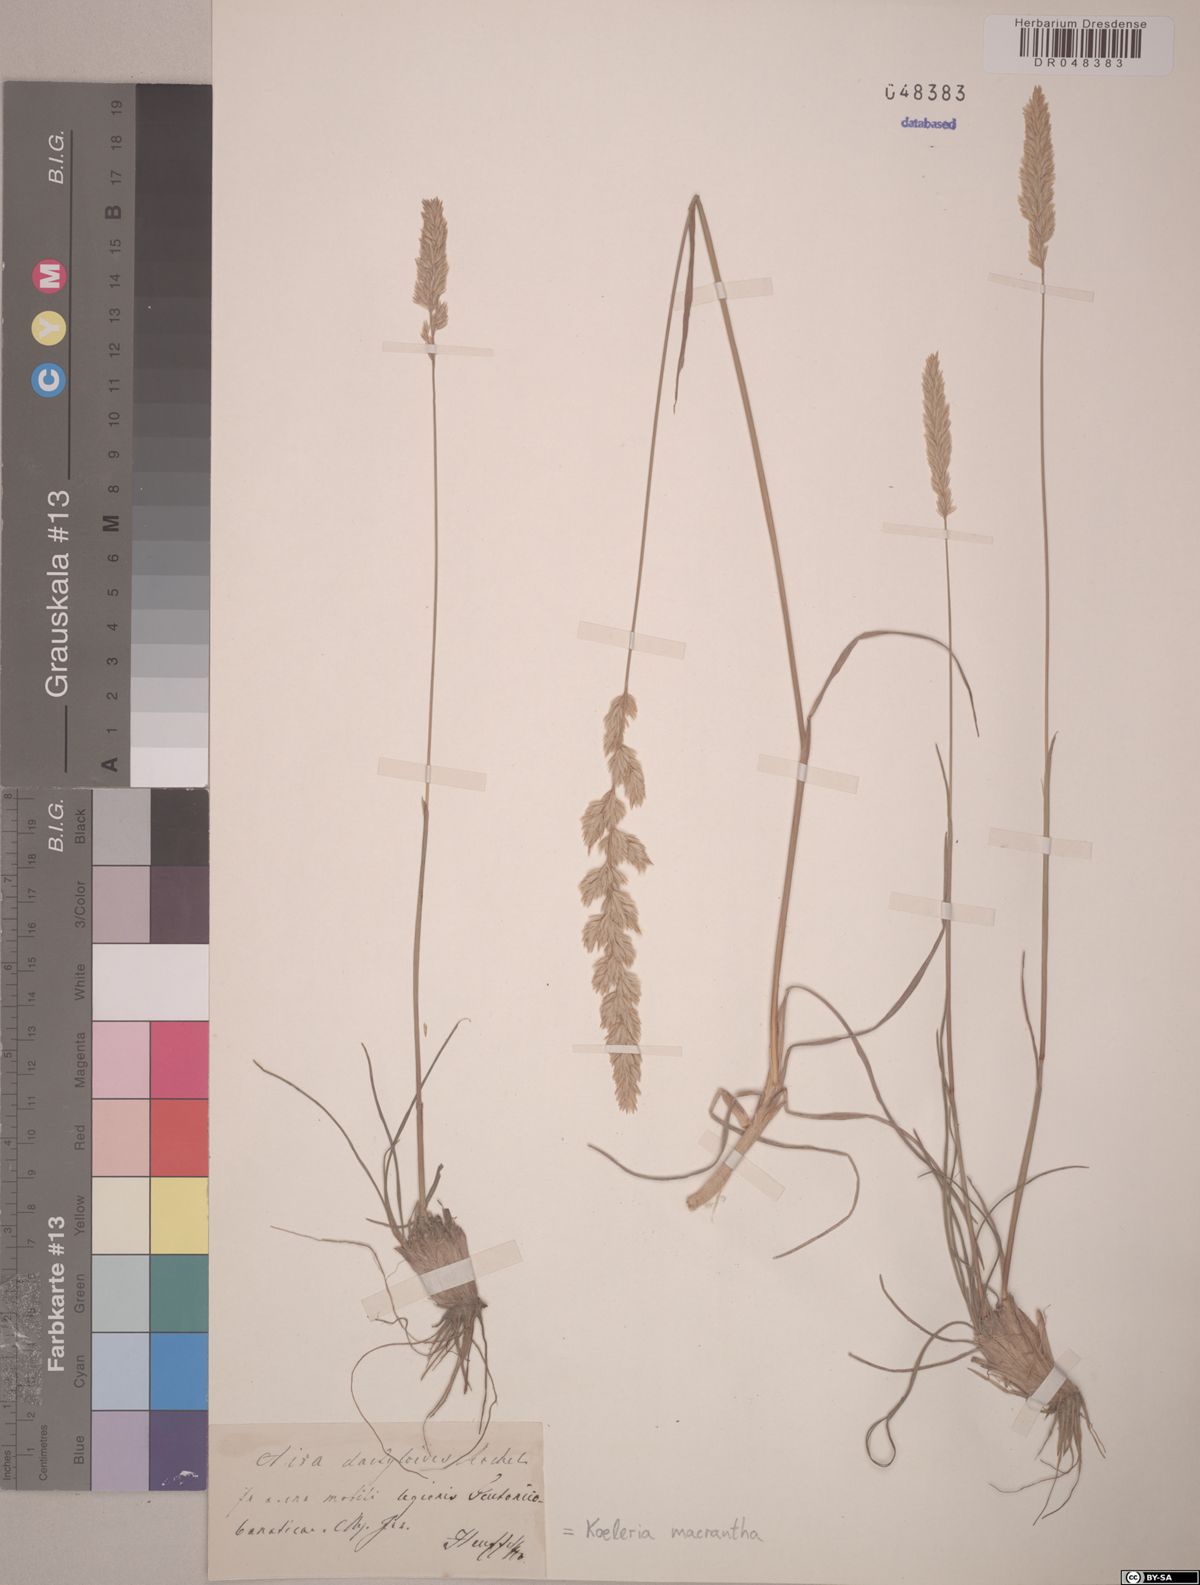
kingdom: Plantae
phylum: Tracheophyta
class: Liliopsida
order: Poales
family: Poaceae
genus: Koeleria
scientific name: Koeleria macrantha
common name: Crested hair-grass
